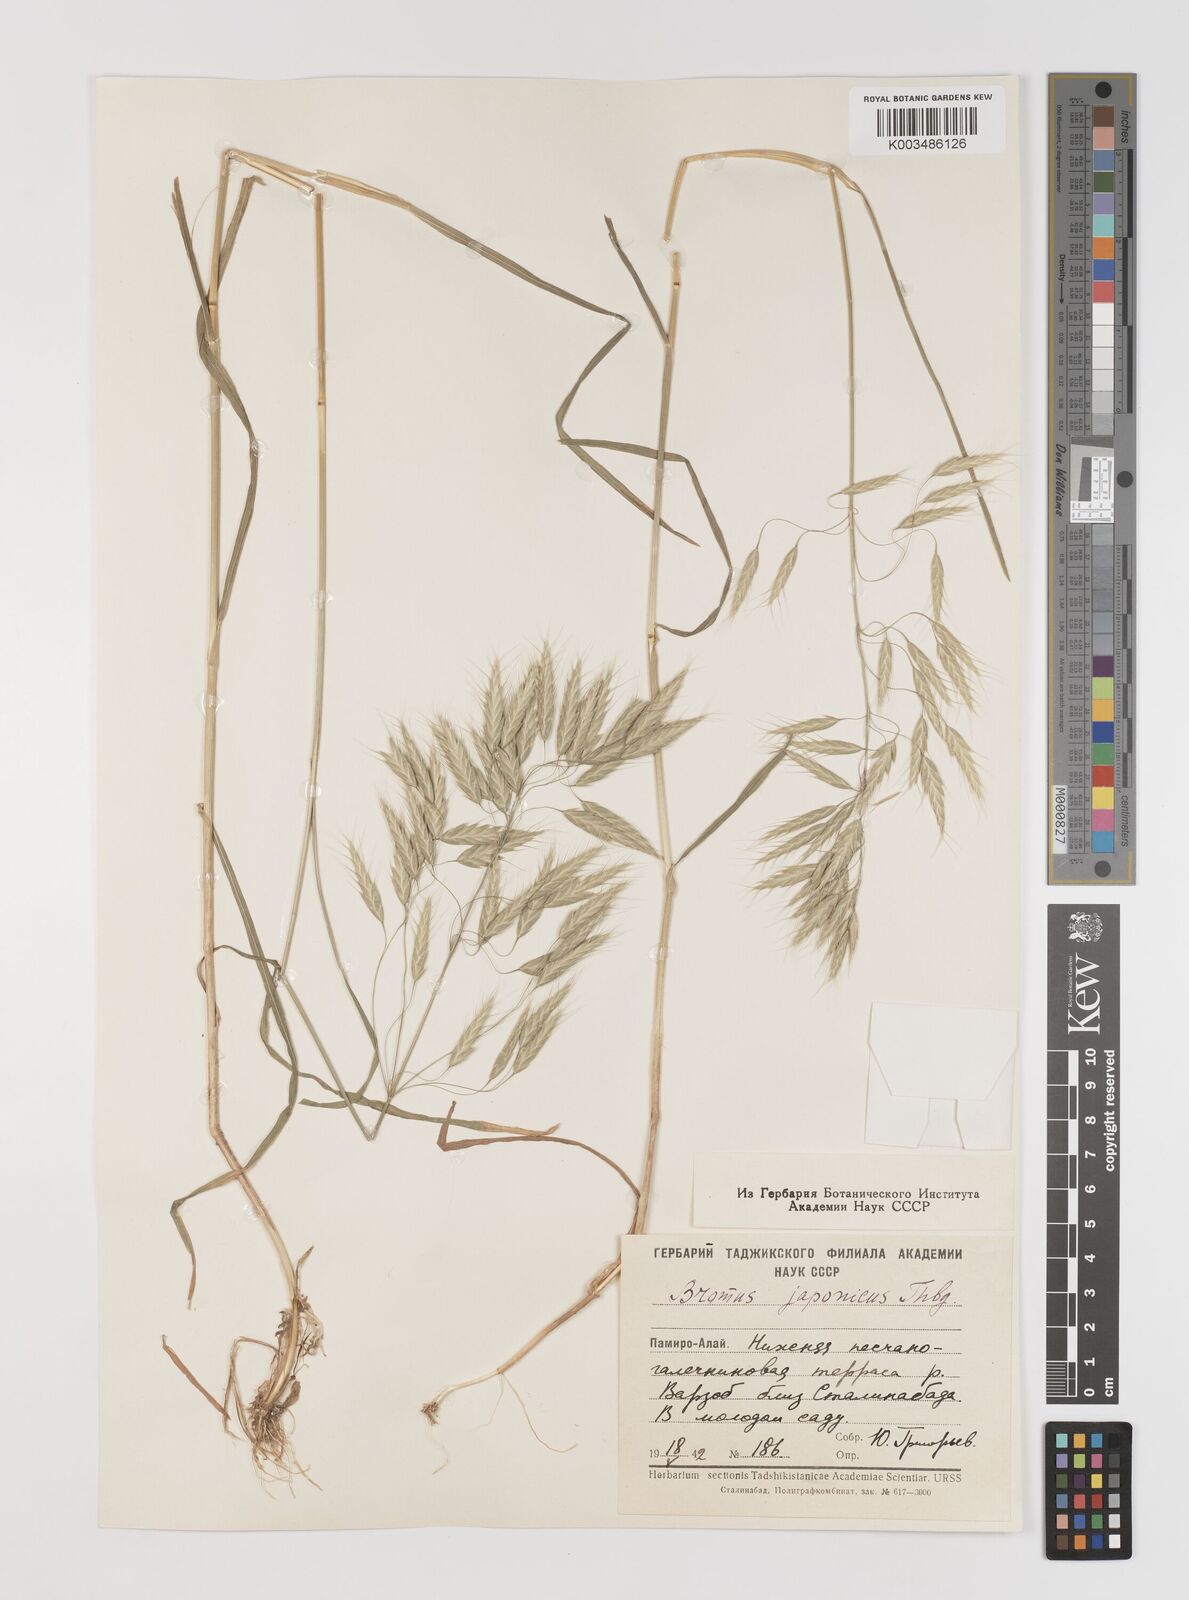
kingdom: Plantae
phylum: Tracheophyta
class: Liliopsida
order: Poales
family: Poaceae
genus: Bromus
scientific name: Bromus japonicus
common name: Japanese brome
